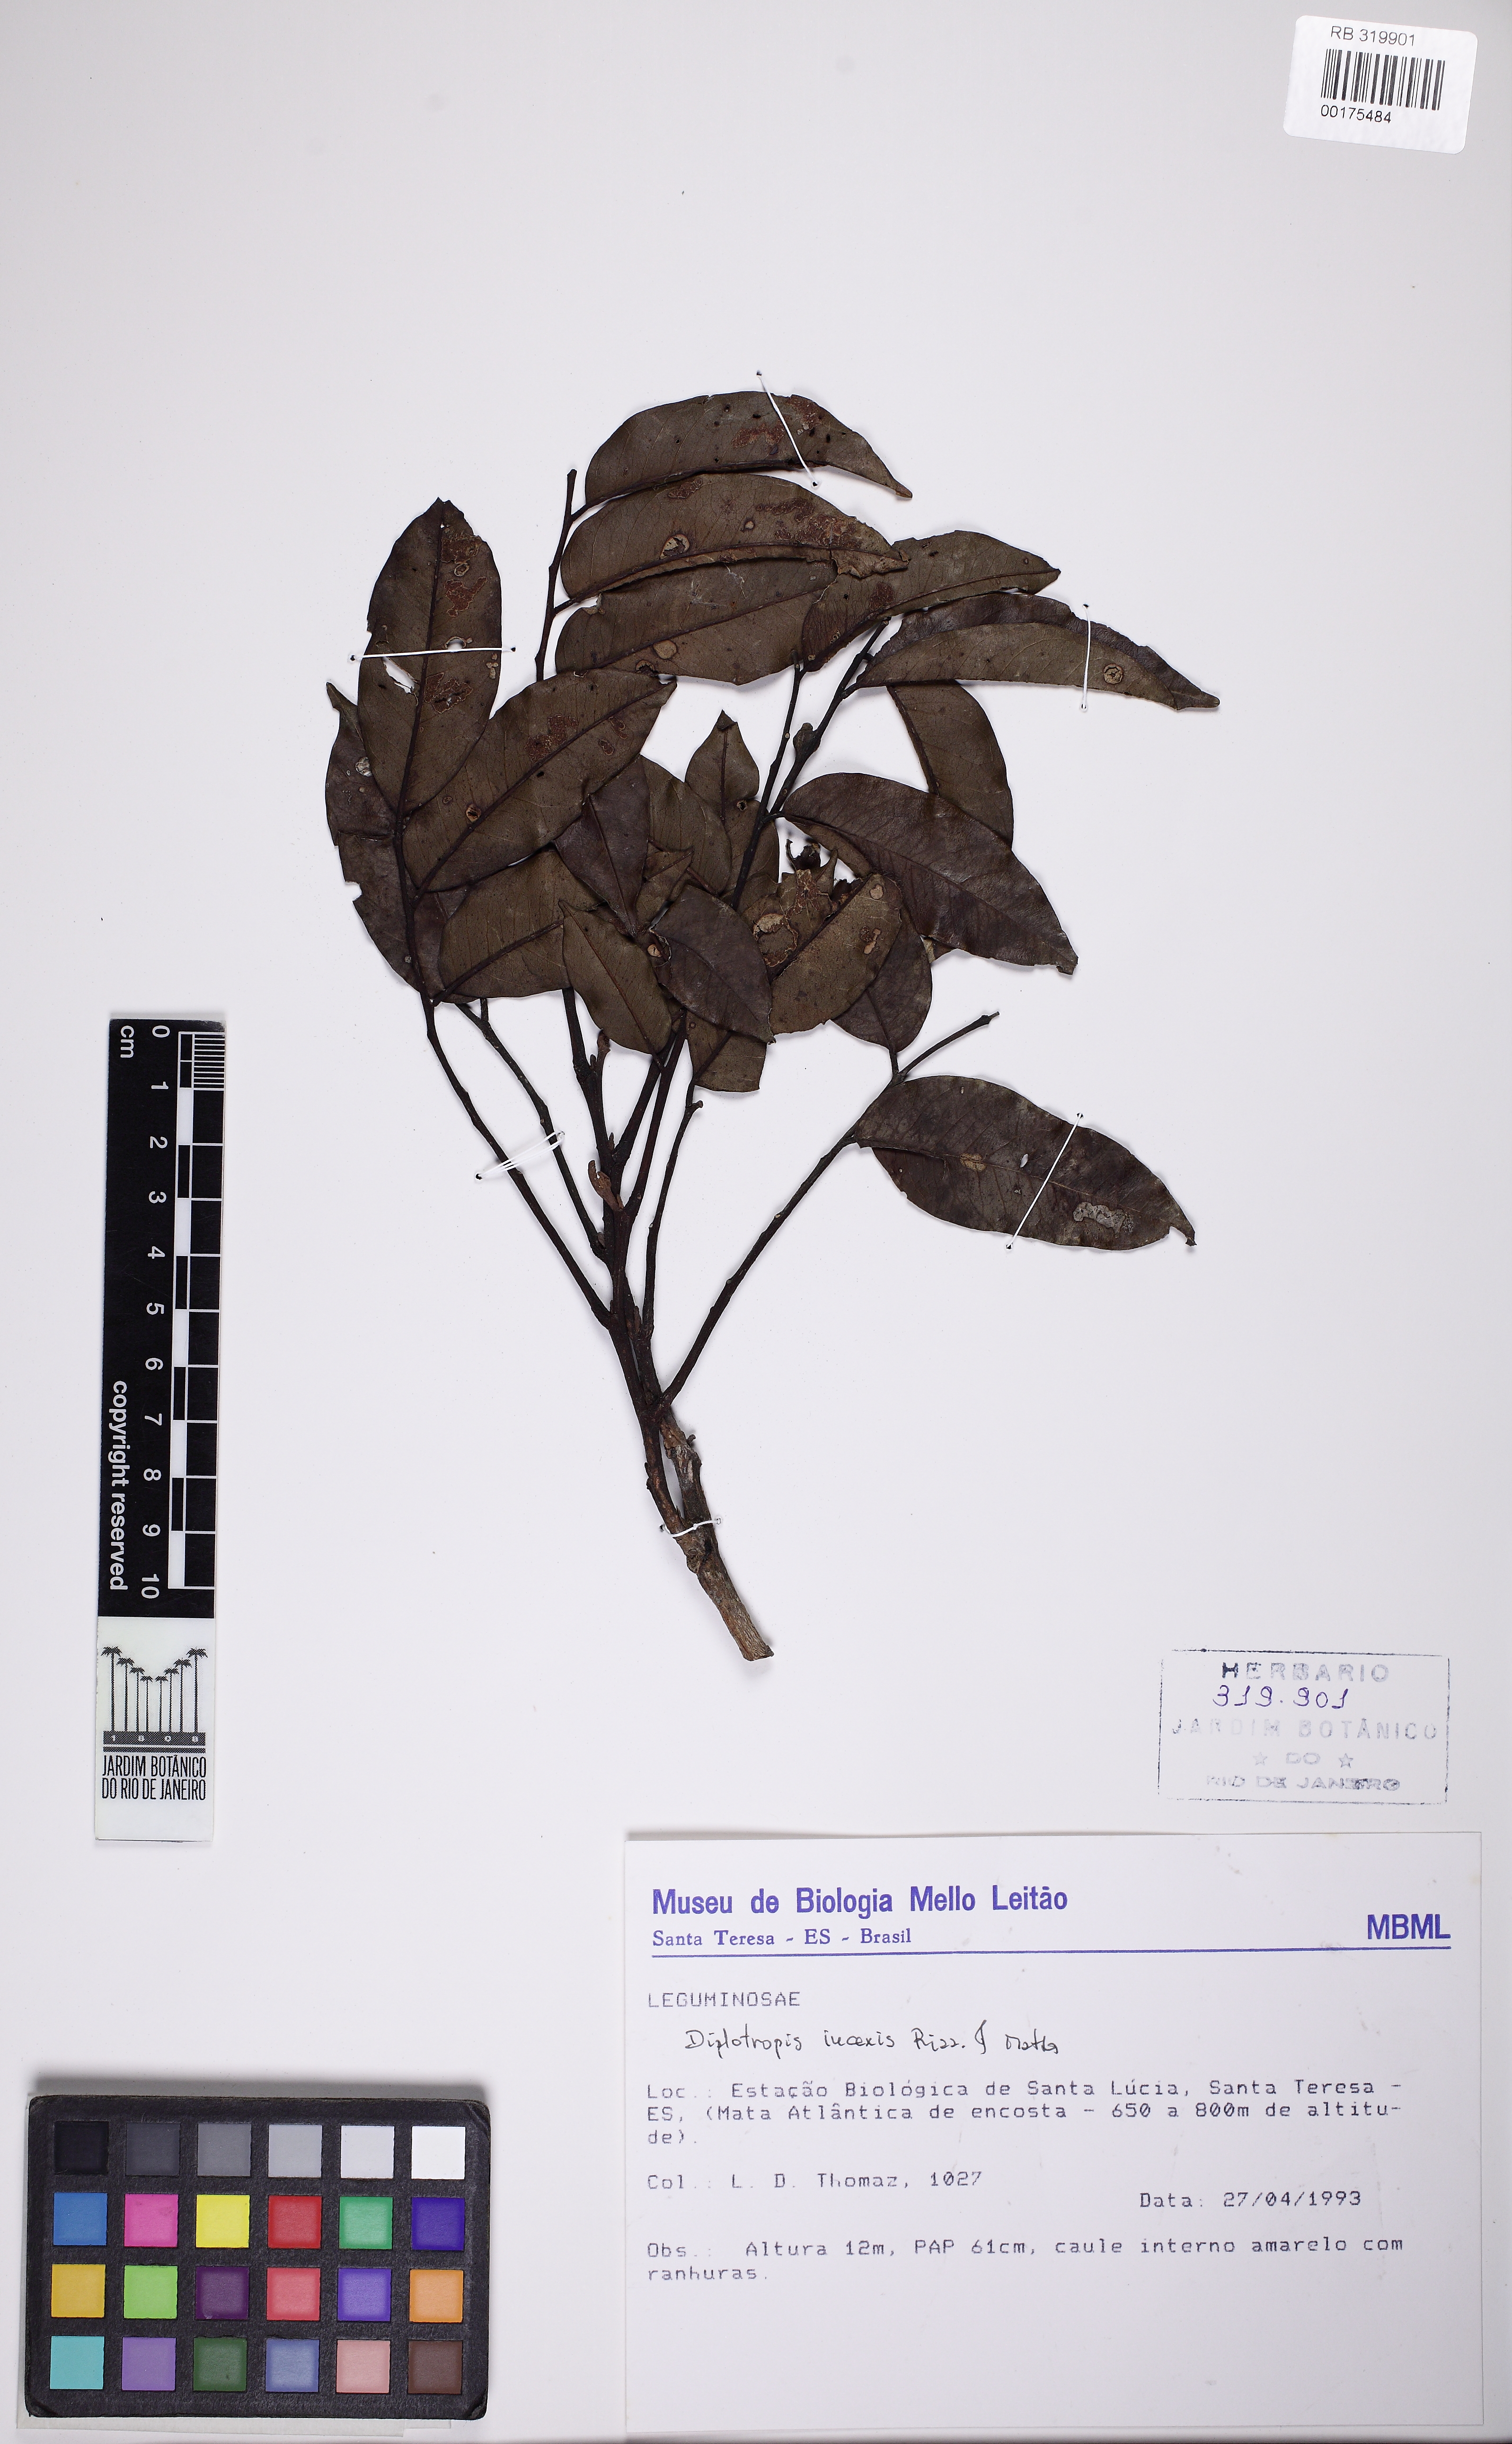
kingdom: Plantae
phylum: Tracheophyta
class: Magnoliopsida
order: Fabales
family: Fabaceae
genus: Diplotropis
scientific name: Diplotropis incexis
